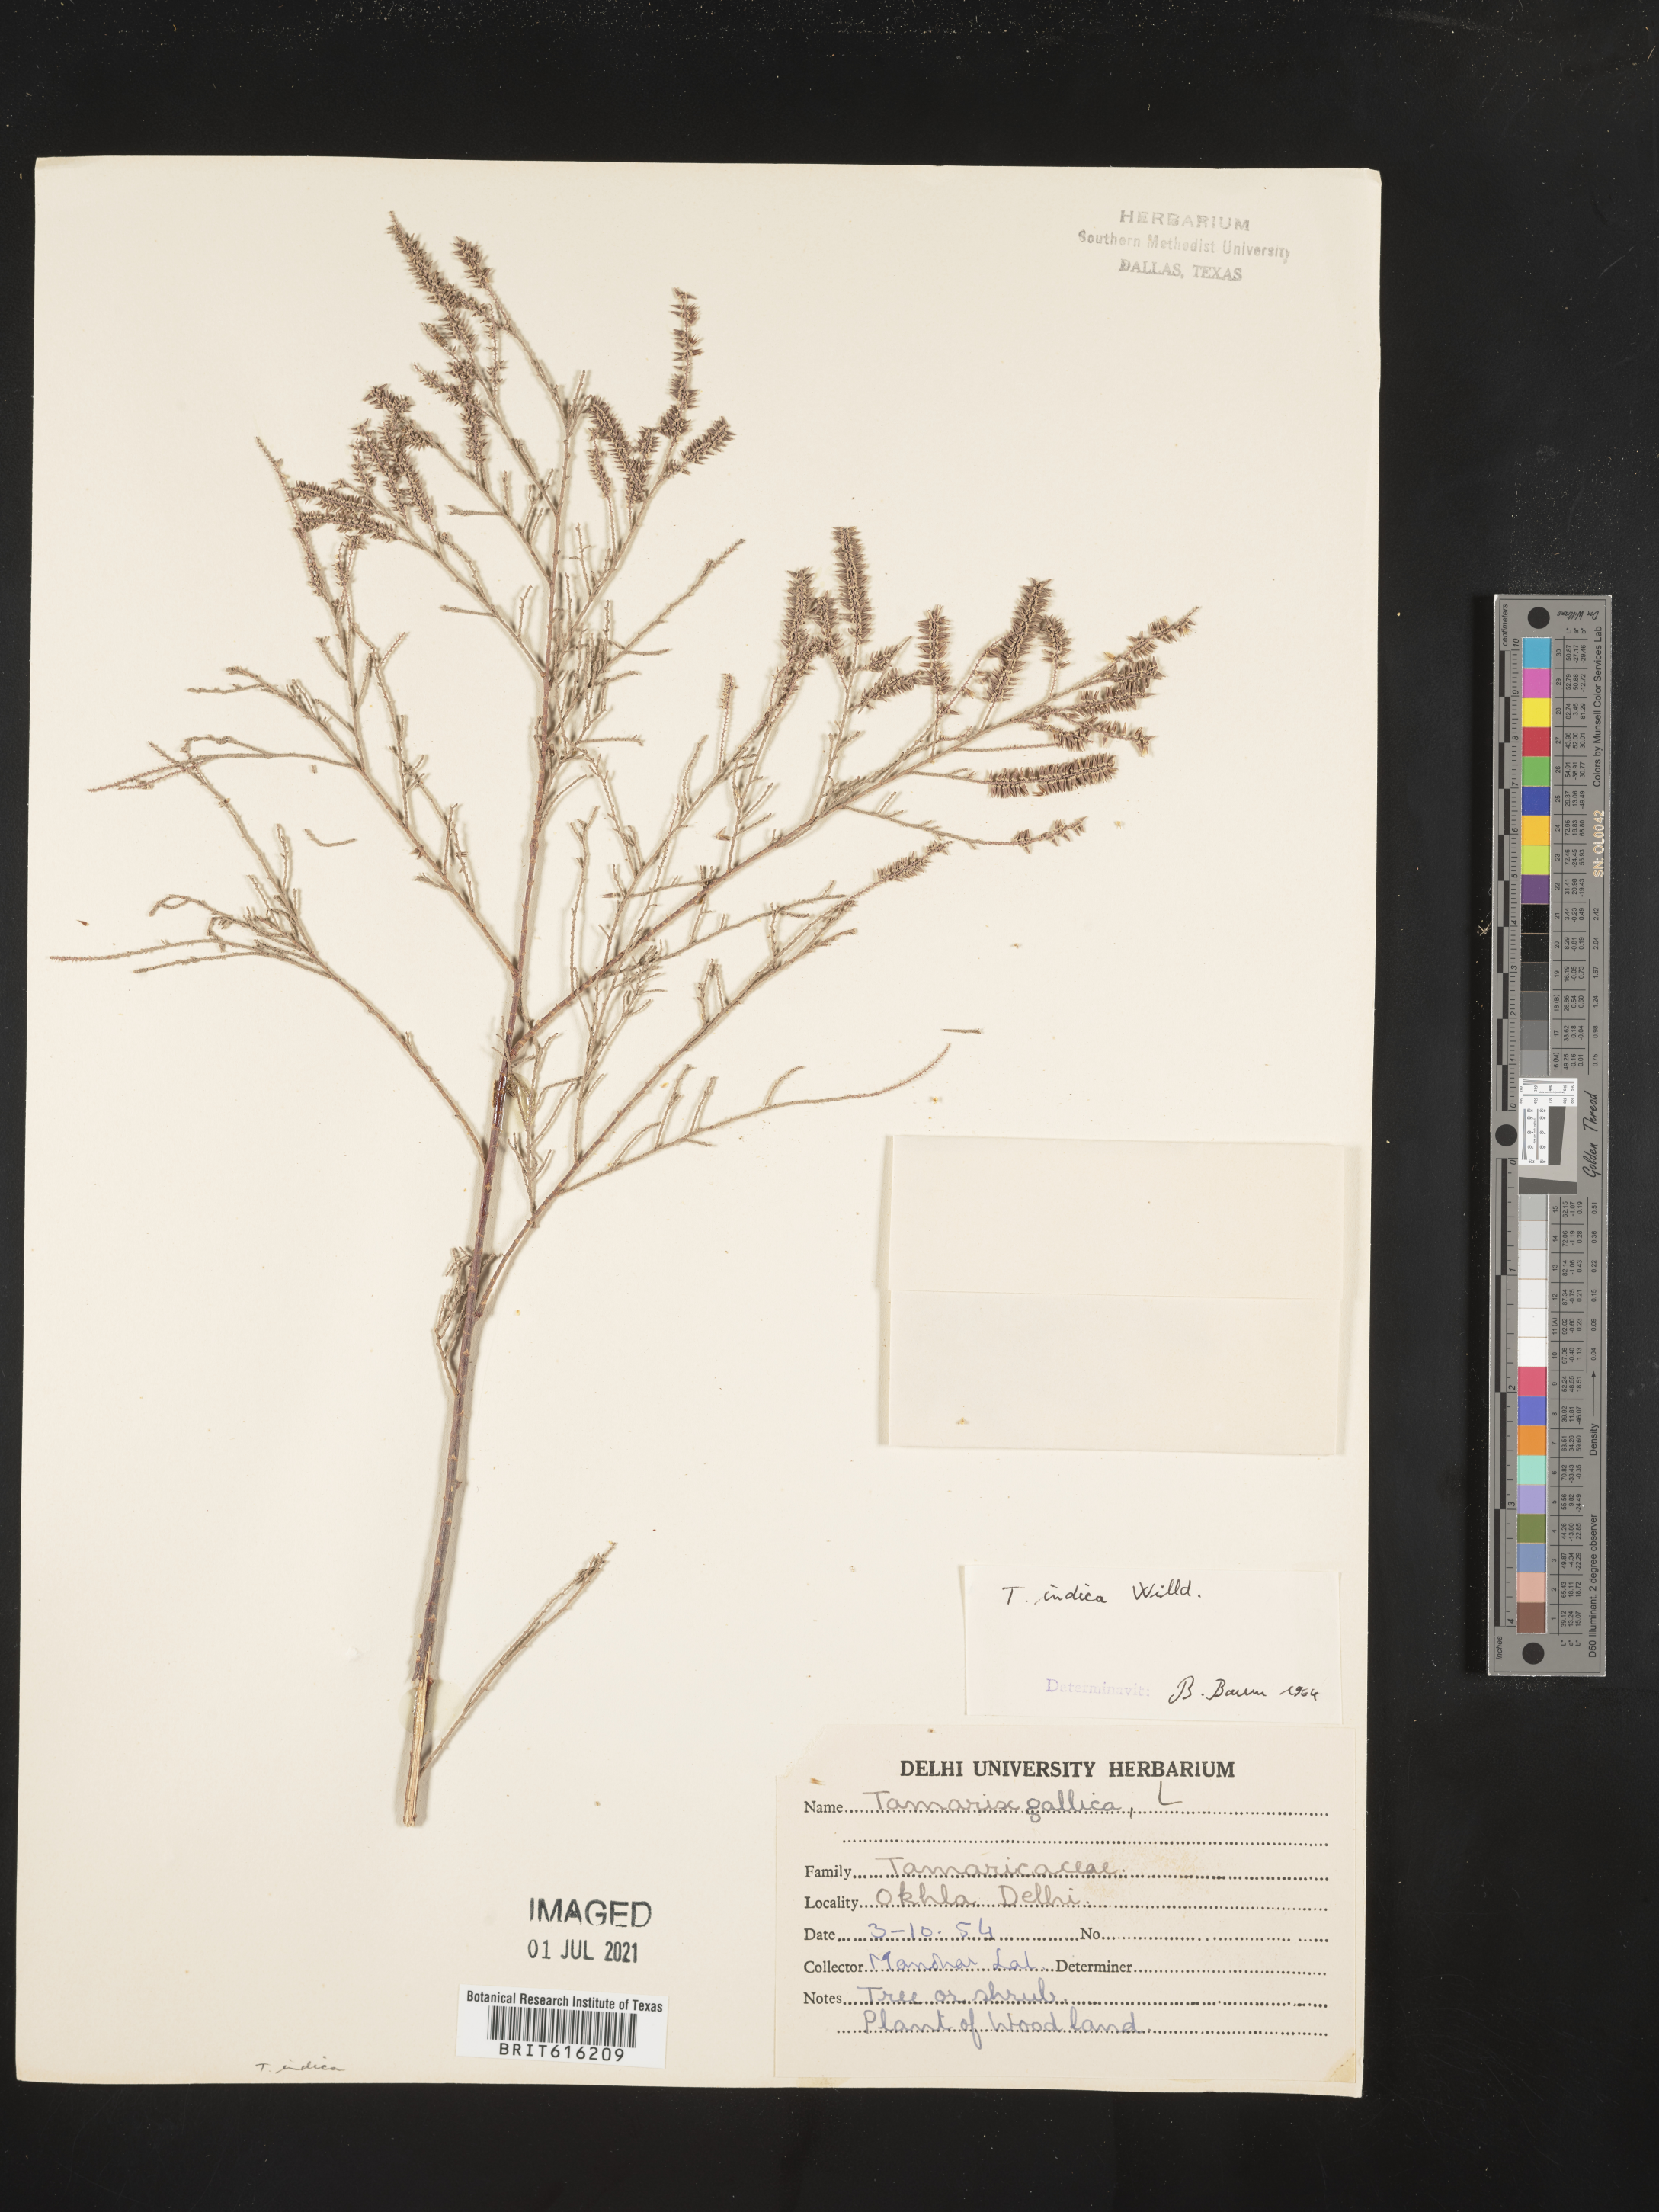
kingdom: Plantae
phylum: Tracheophyta
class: Magnoliopsida
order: Caryophyllales
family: Tamaricaceae
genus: Tamarix
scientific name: Tamarix indica
